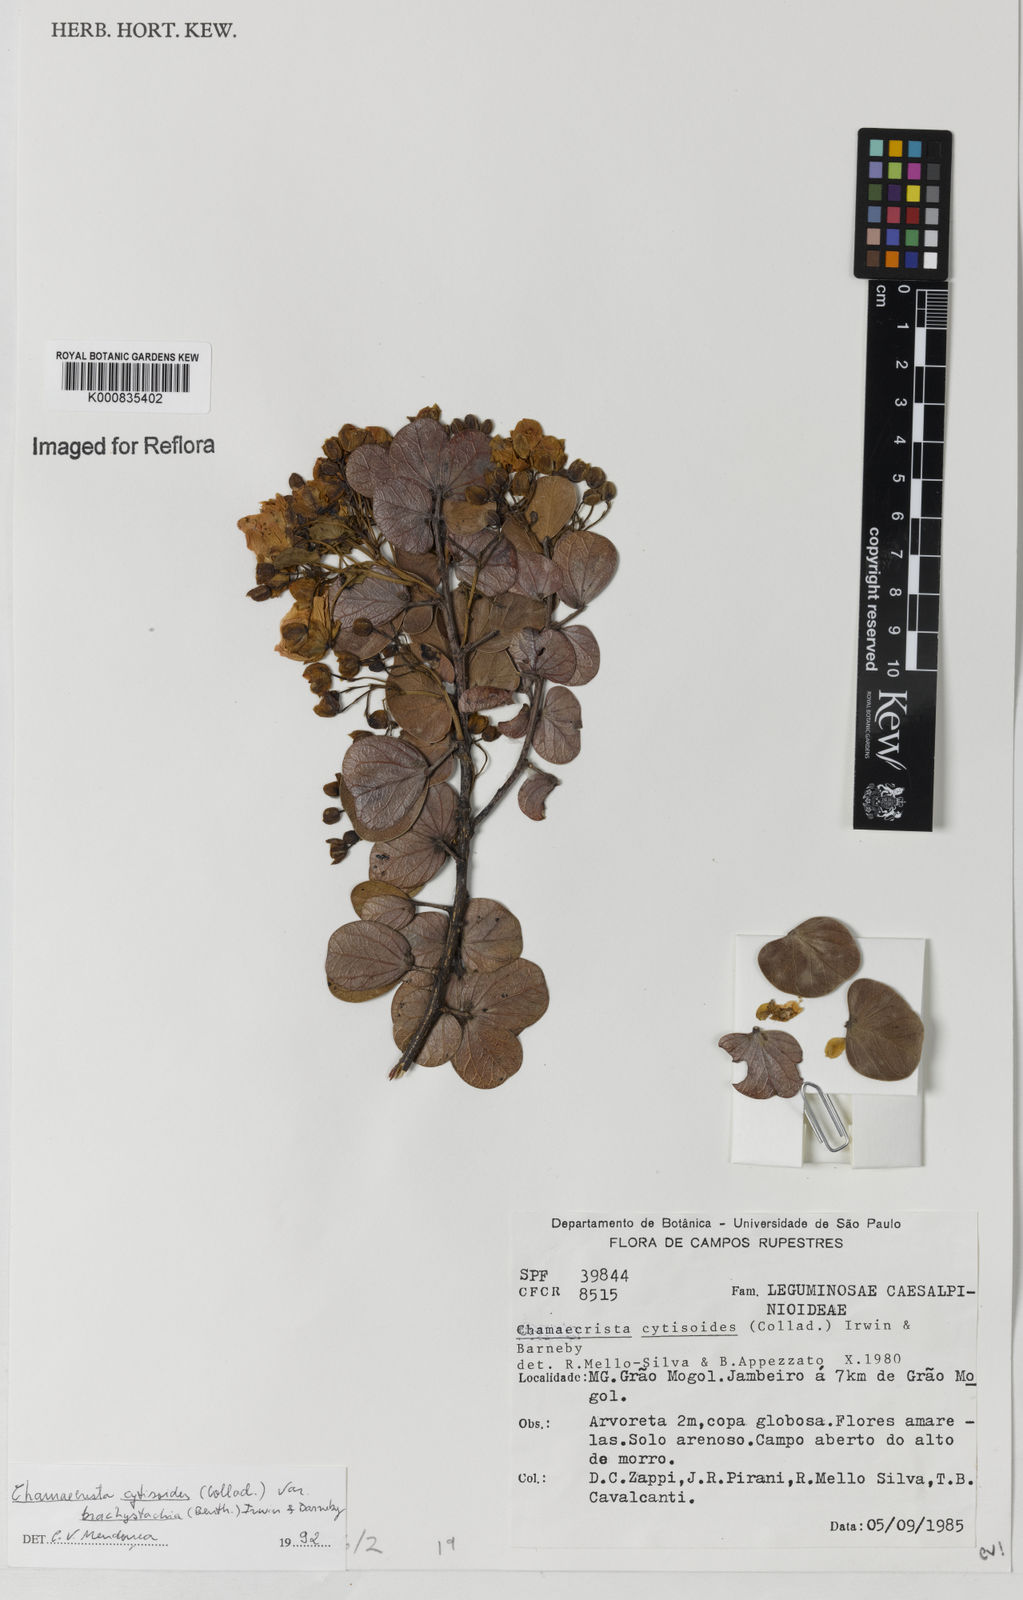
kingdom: Plantae
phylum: Tracheophyta
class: Magnoliopsida
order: Fabales
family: Fabaceae
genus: Chamaecrista
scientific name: Chamaecrista cytisoides
